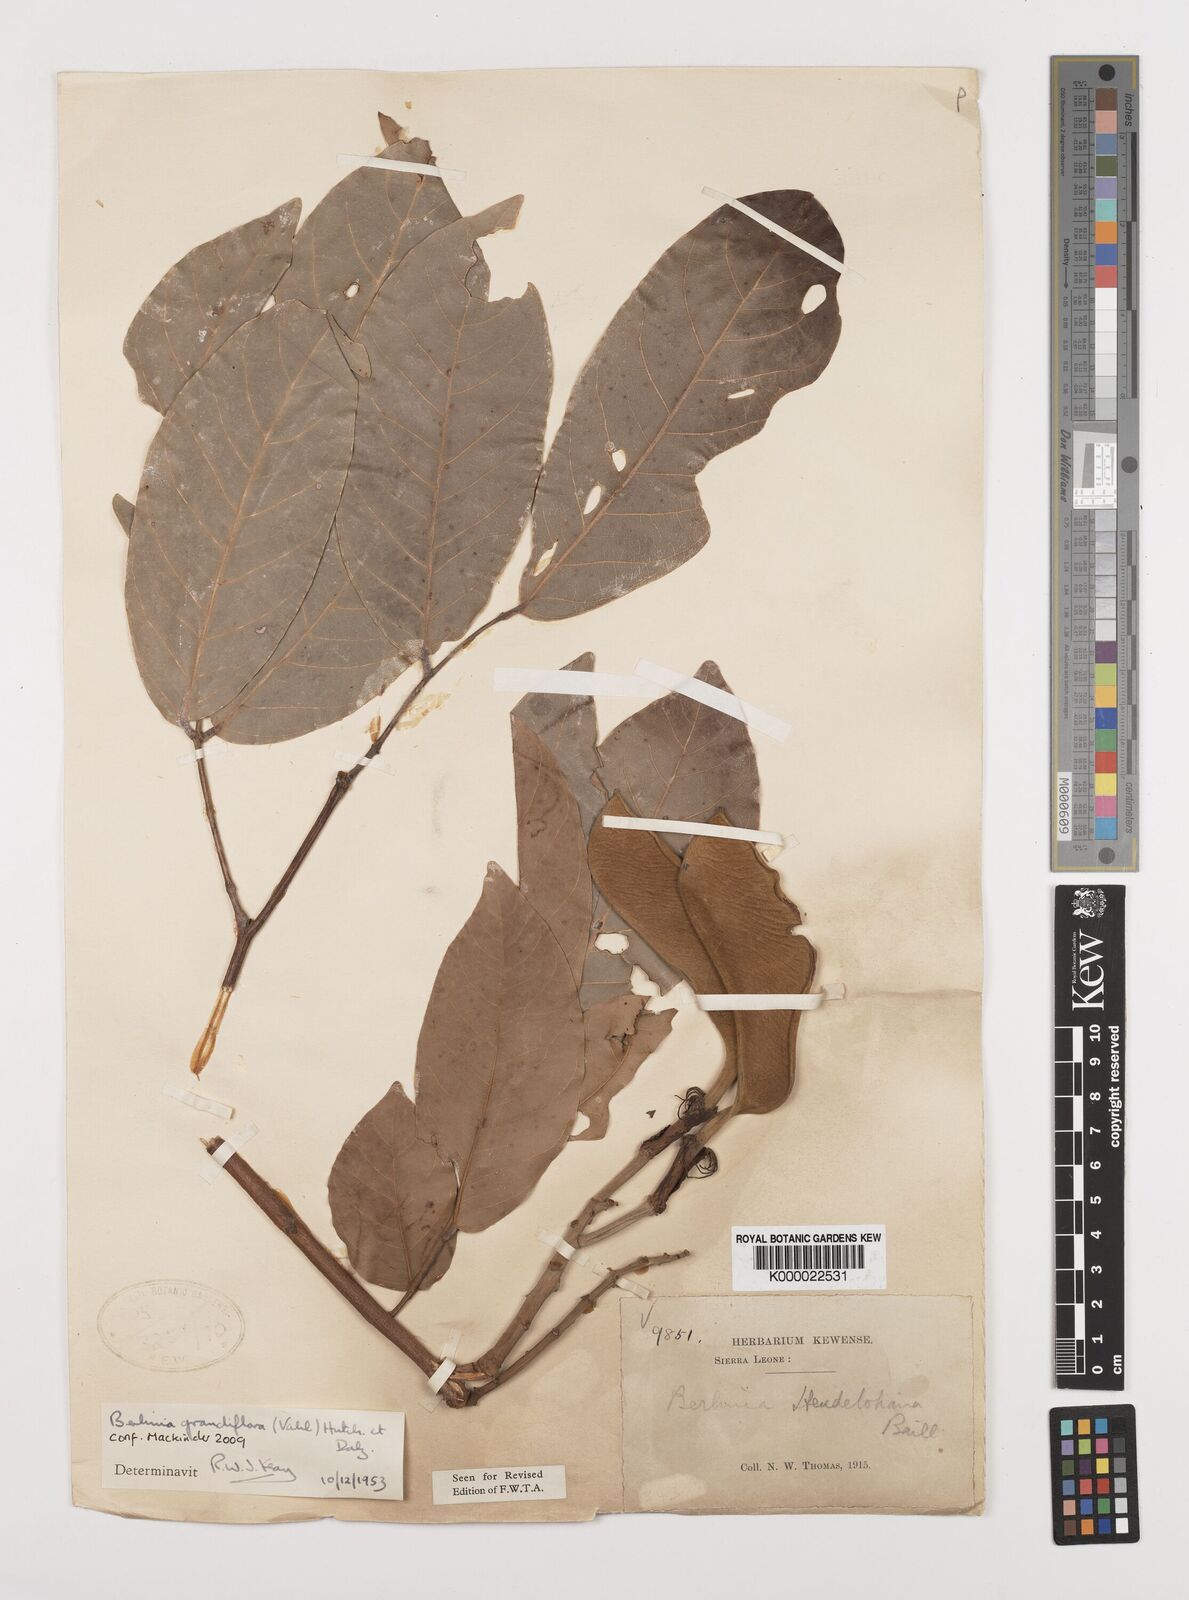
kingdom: Plantae
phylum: Tracheophyta
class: Magnoliopsida
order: Fabales
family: Fabaceae
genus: Berlinia
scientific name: Berlinia grandiflora
